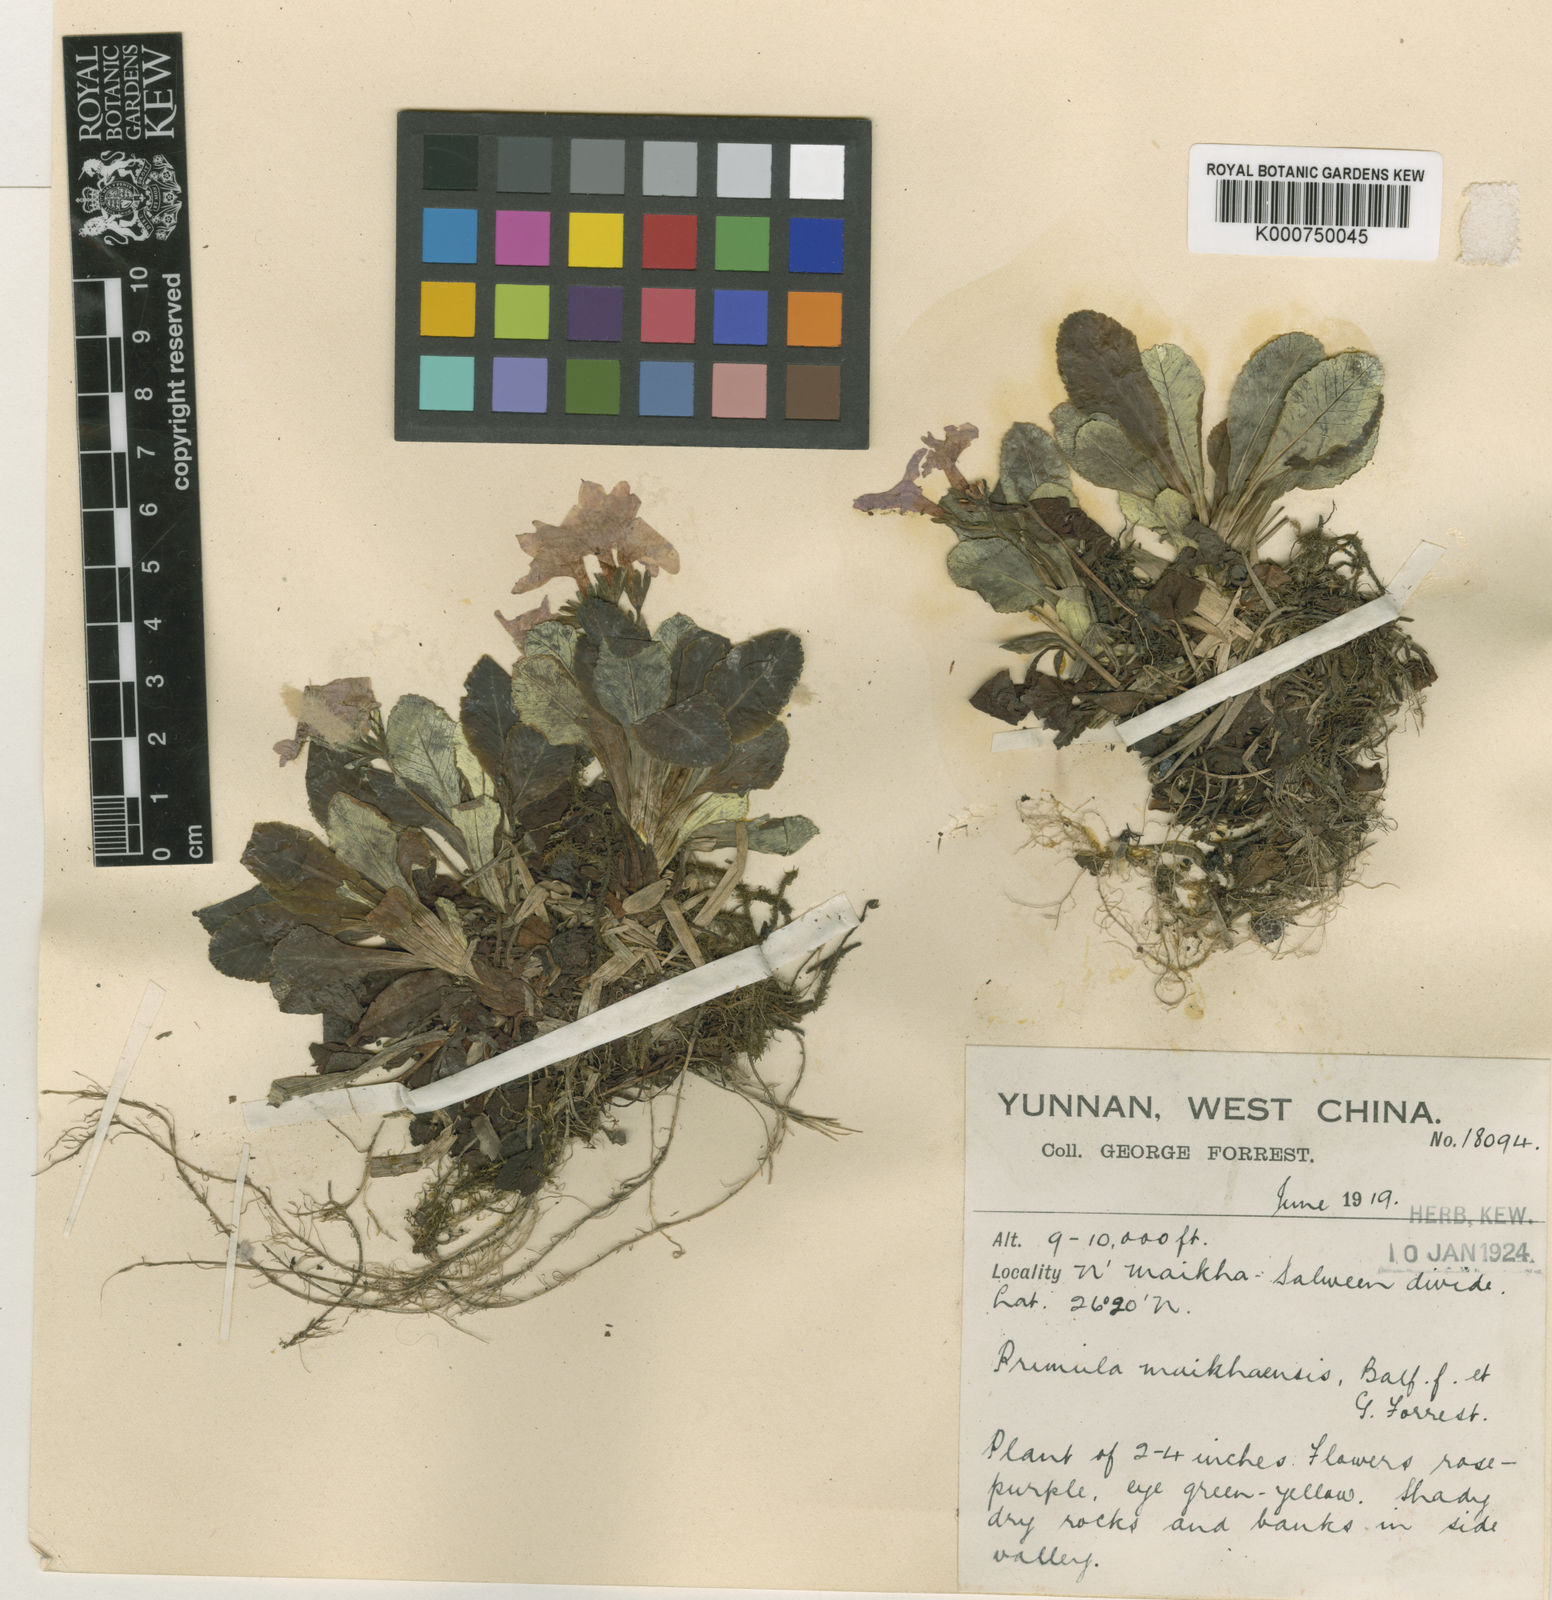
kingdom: Plantae
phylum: Tracheophyta
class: Magnoliopsida
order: Ericales
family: Primulaceae
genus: Primula
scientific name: Primula
